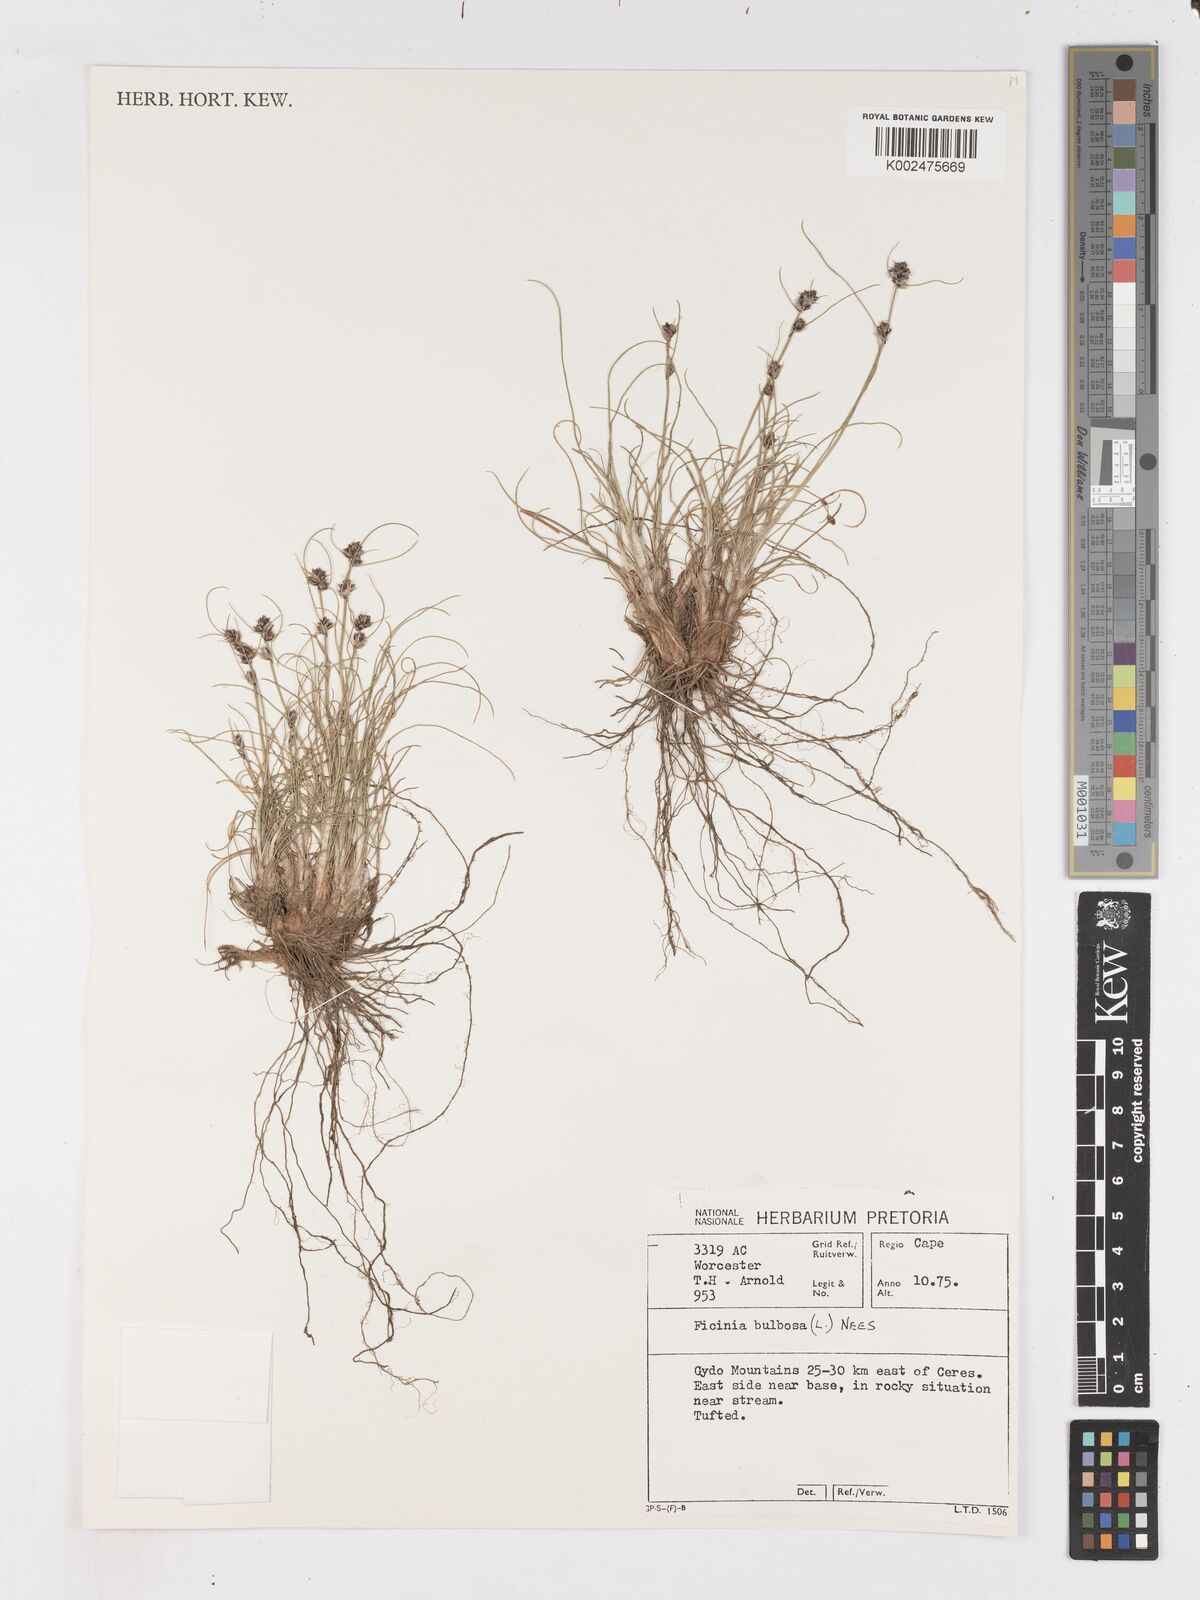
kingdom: Plantae
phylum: Tracheophyta
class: Liliopsida
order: Poales
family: Cyperaceae
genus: Ficinia
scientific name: Ficinia bulbosa
